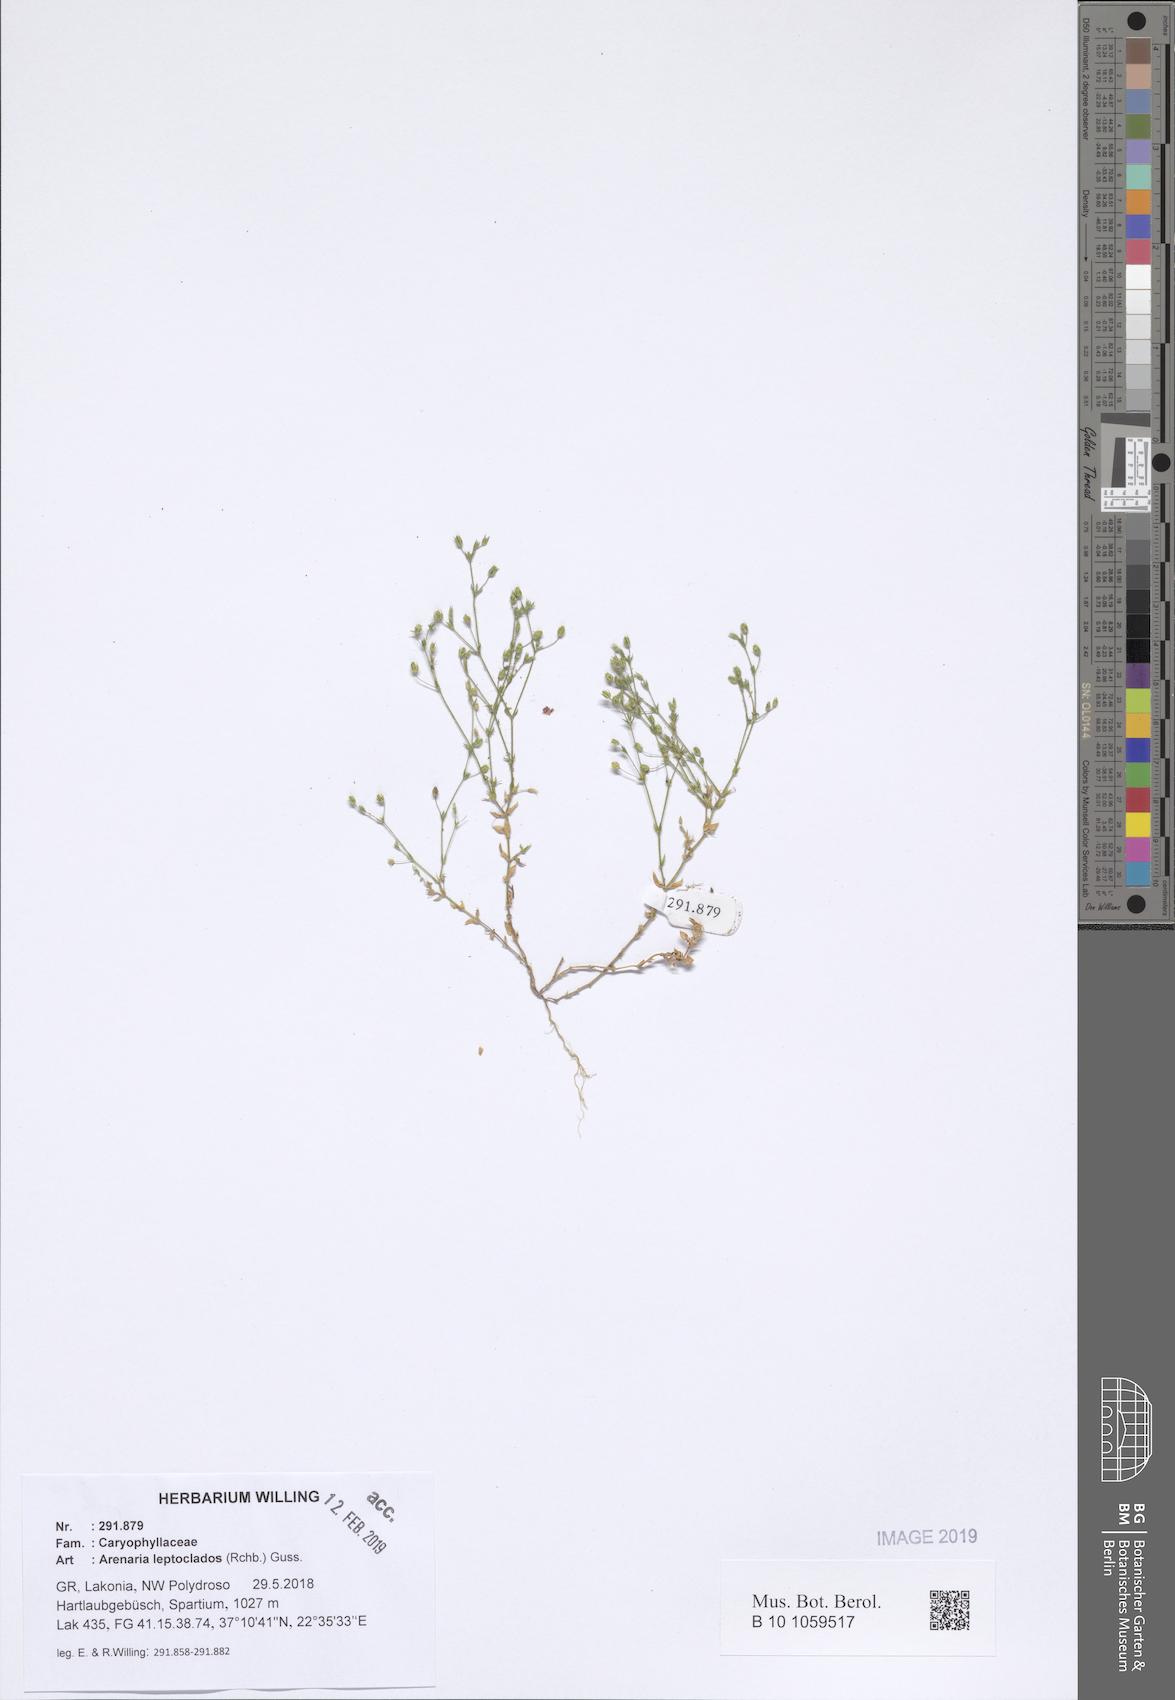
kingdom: Plantae
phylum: Tracheophyta
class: Magnoliopsida
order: Caryophyllales
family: Caryophyllaceae
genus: Arenaria
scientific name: Arenaria leptoclados
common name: Thyme-leaved sandwort
